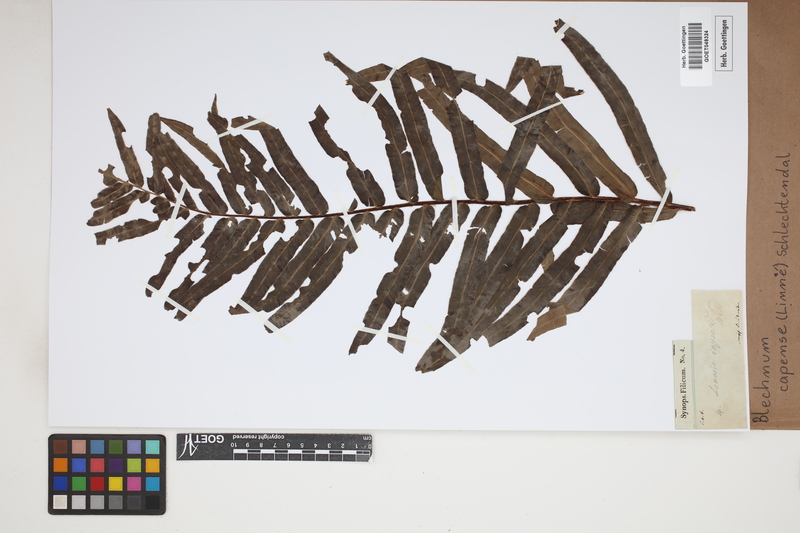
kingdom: Plantae
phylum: Tracheophyta
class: Polypodiopsida
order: Polypodiales
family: Blechnaceae
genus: Parablechnum
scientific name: Parablechnum capense
